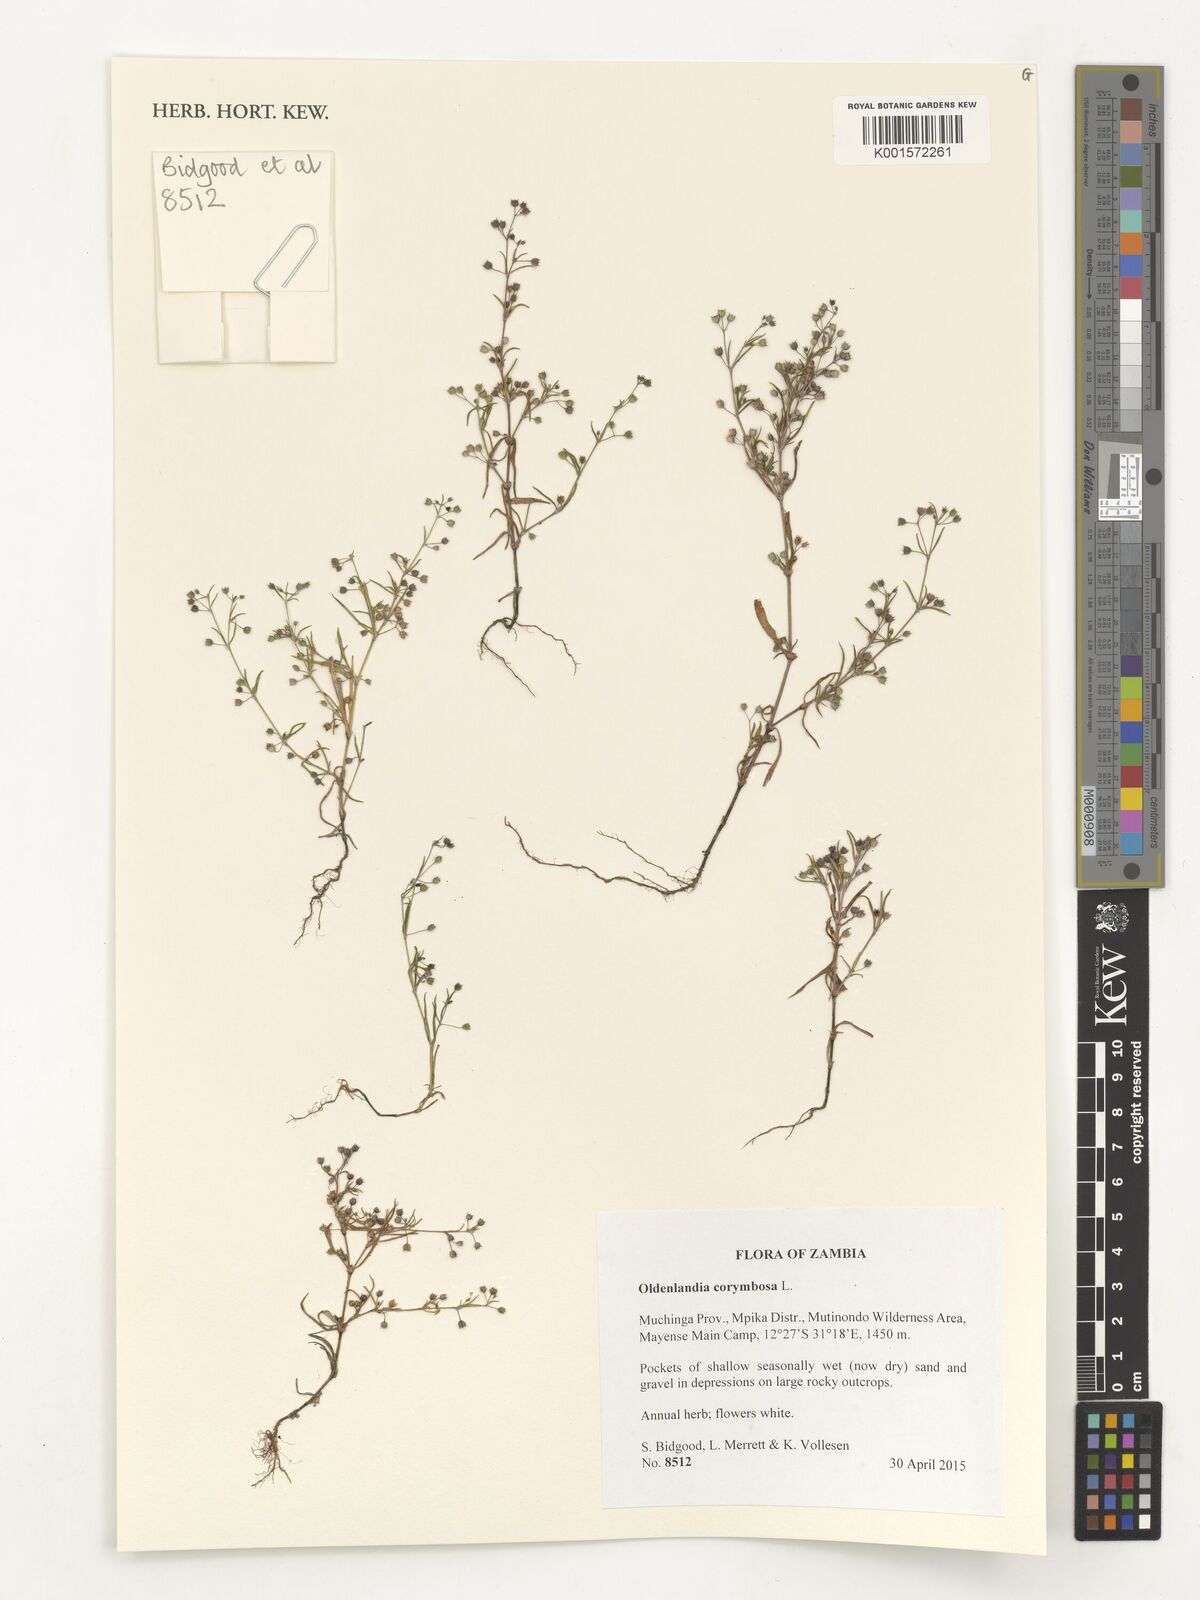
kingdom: Plantae
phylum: Tracheophyta
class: Magnoliopsida
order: Gentianales
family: Rubiaceae
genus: Hedyotis
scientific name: Hedyotis pruinosa
